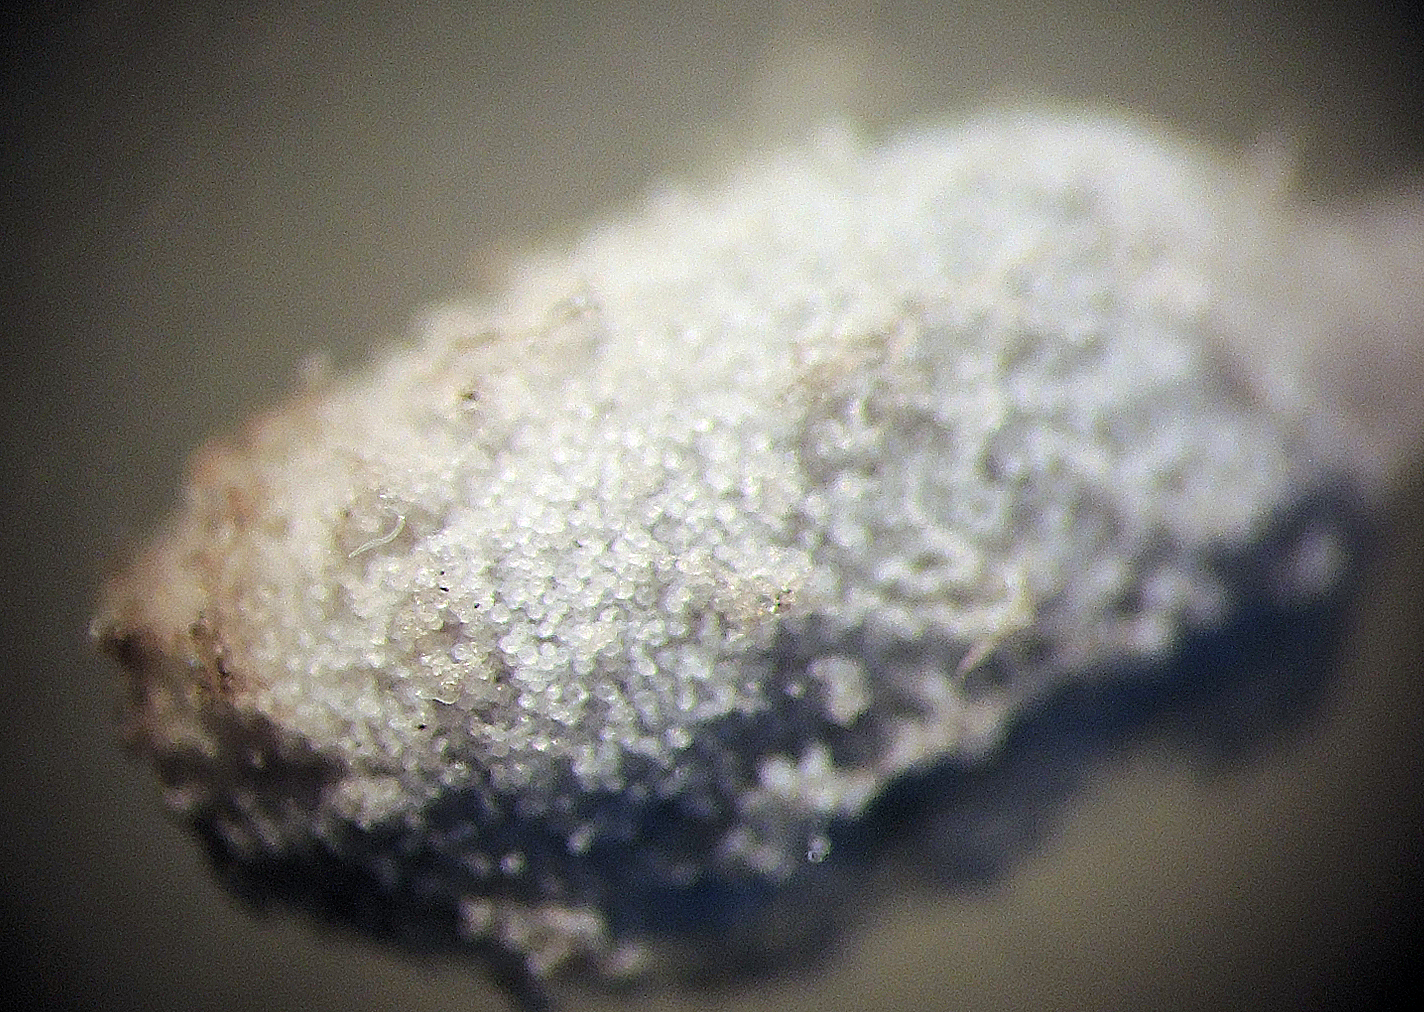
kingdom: Fungi
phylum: Basidiomycota
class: Agaricomycetes
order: Agaricales
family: Psathyrellaceae
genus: Coprinopsis
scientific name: Coprinopsis stercorea
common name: pjusket blækhat
